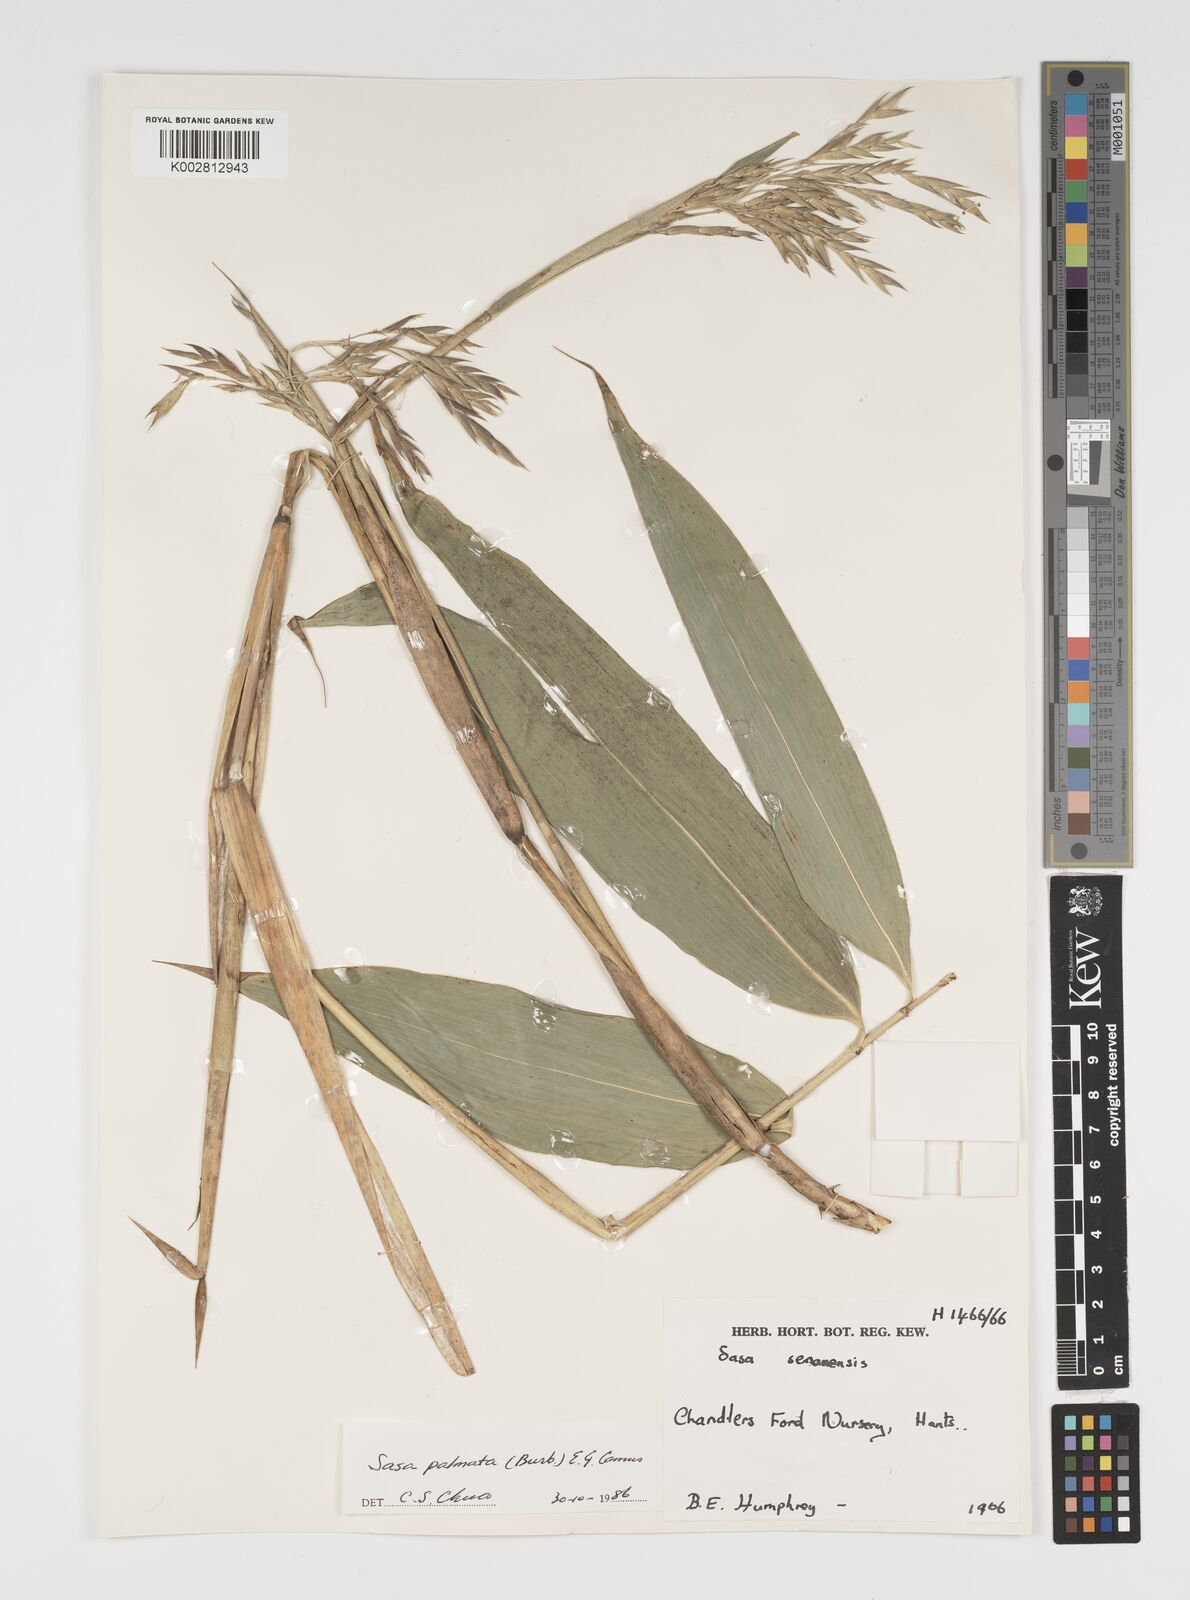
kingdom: Plantae
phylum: Tracheophyta
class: Liliopsida
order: Poales
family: Poaceae
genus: Sasa
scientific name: Sasa palmata
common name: Broad-leaved bamboo
